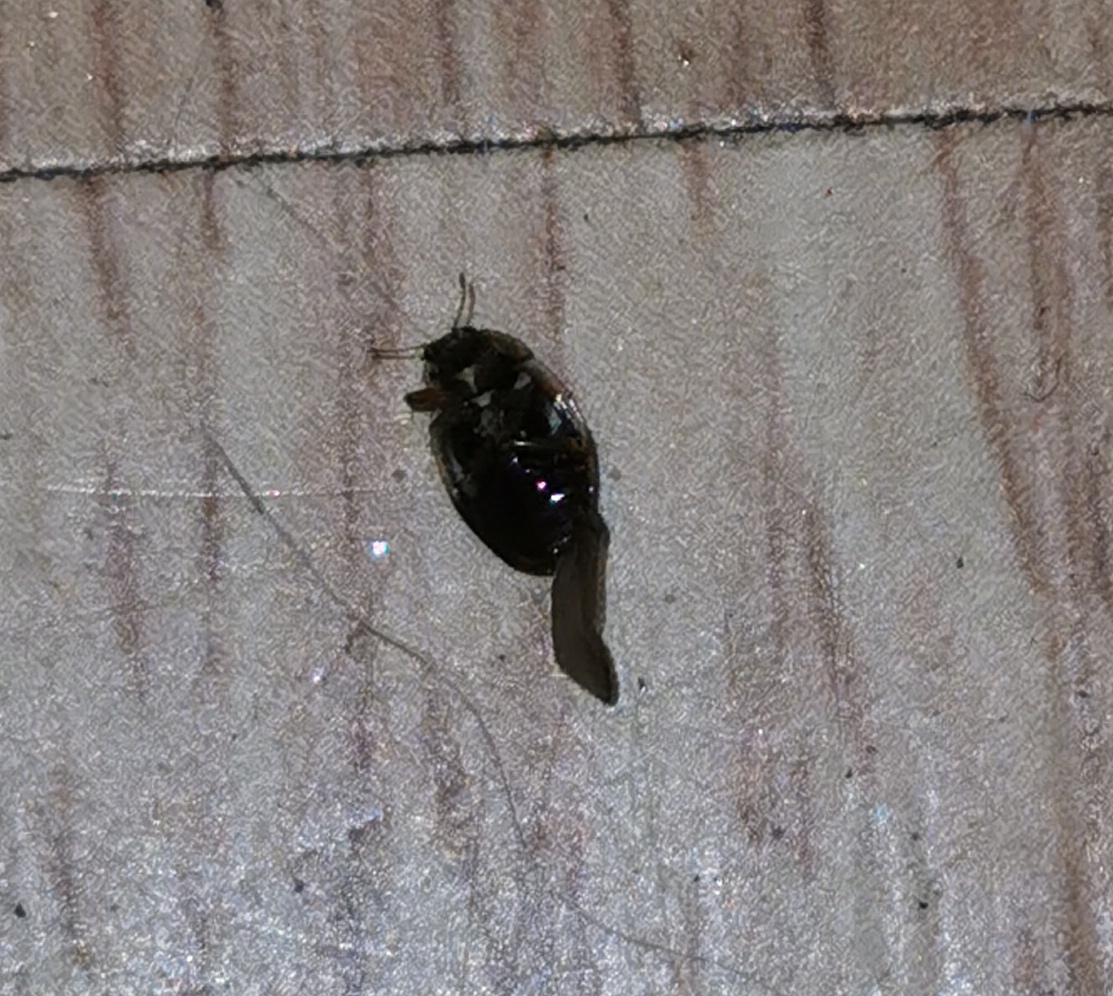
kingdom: Animalia
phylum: Arthropoda
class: Insecta
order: Coleoptera
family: Coccinellidae
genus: Aphidecta
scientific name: Aphidecta obliterata
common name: Uplettet mariehøne
